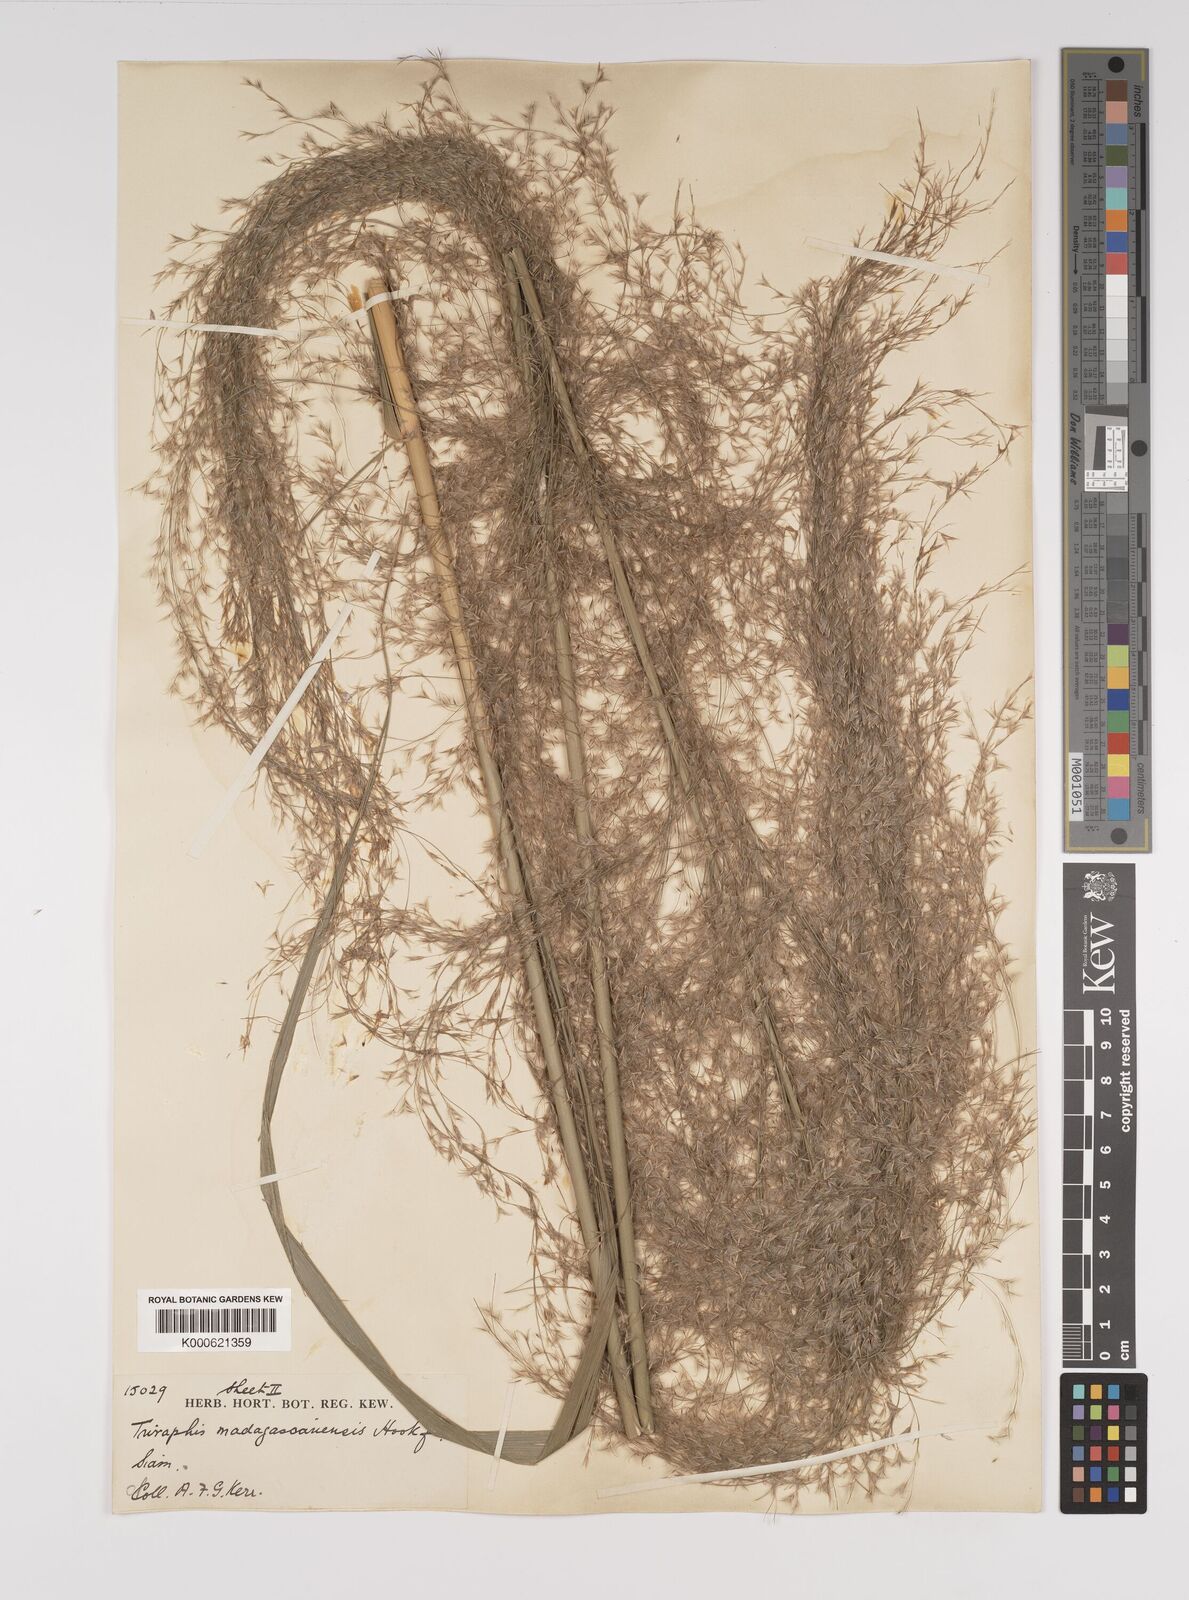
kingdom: Plantae
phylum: Tracheophyta
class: Liliopsida
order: Poales
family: Poaceae
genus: Neyraudia
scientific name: Neyraudia reynaudiana
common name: Silkreed
